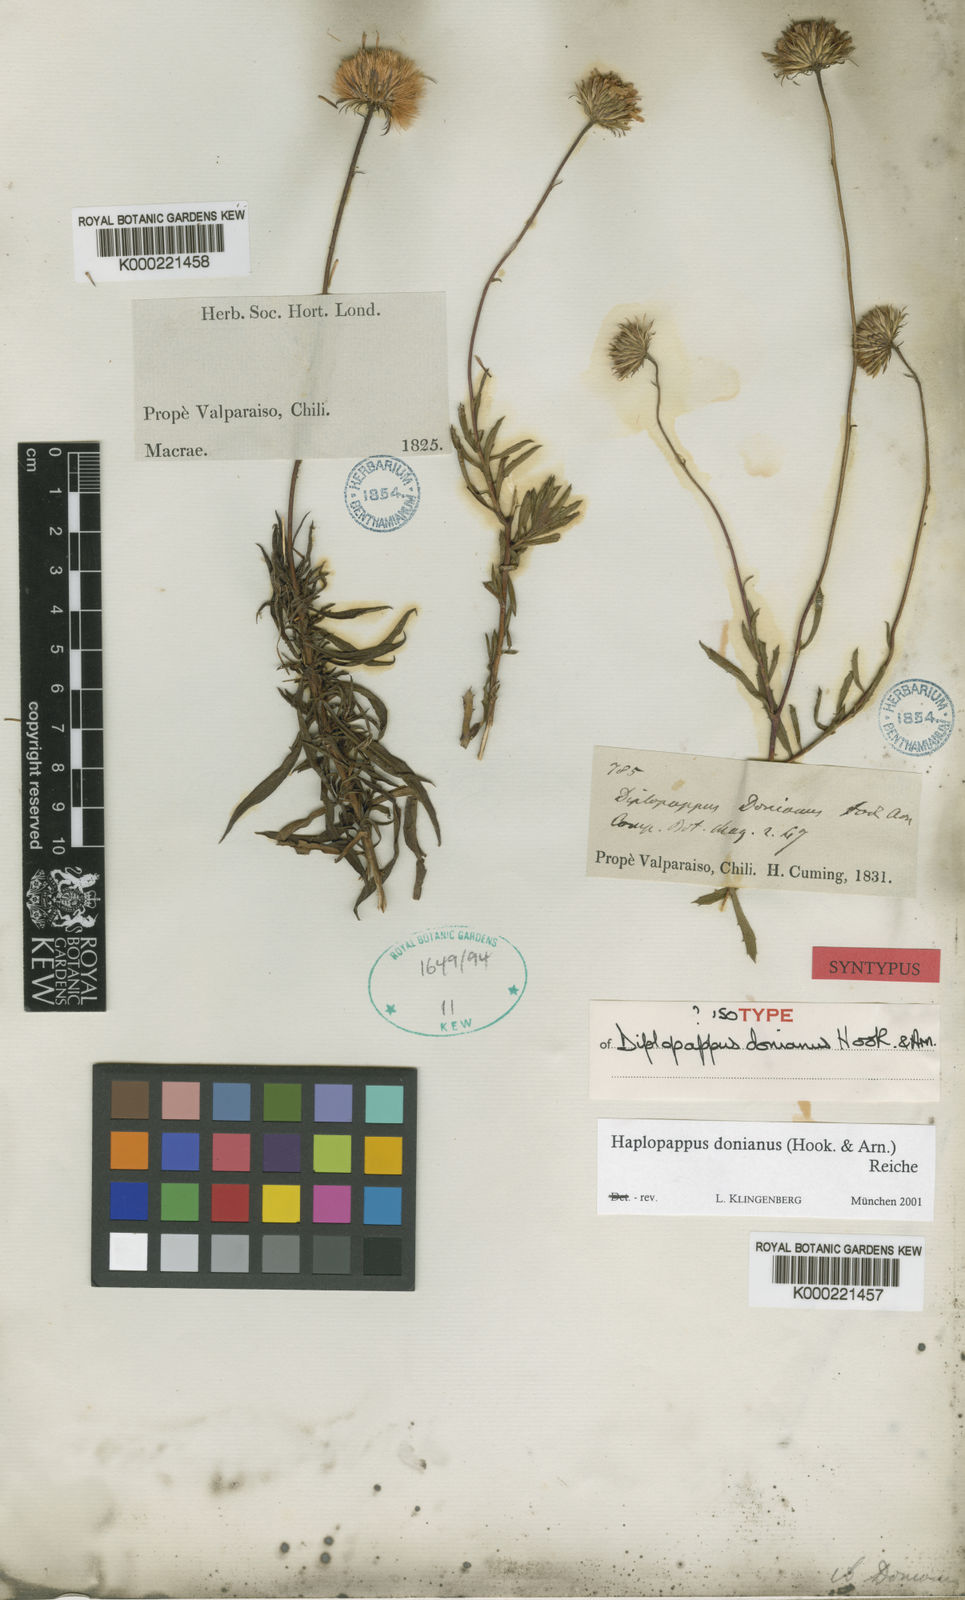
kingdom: Plantae
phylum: Tracheophyta
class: Magnoliopsida
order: Asterales
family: Asteraceae
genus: Haplopappus
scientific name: Haplopappus donianus
